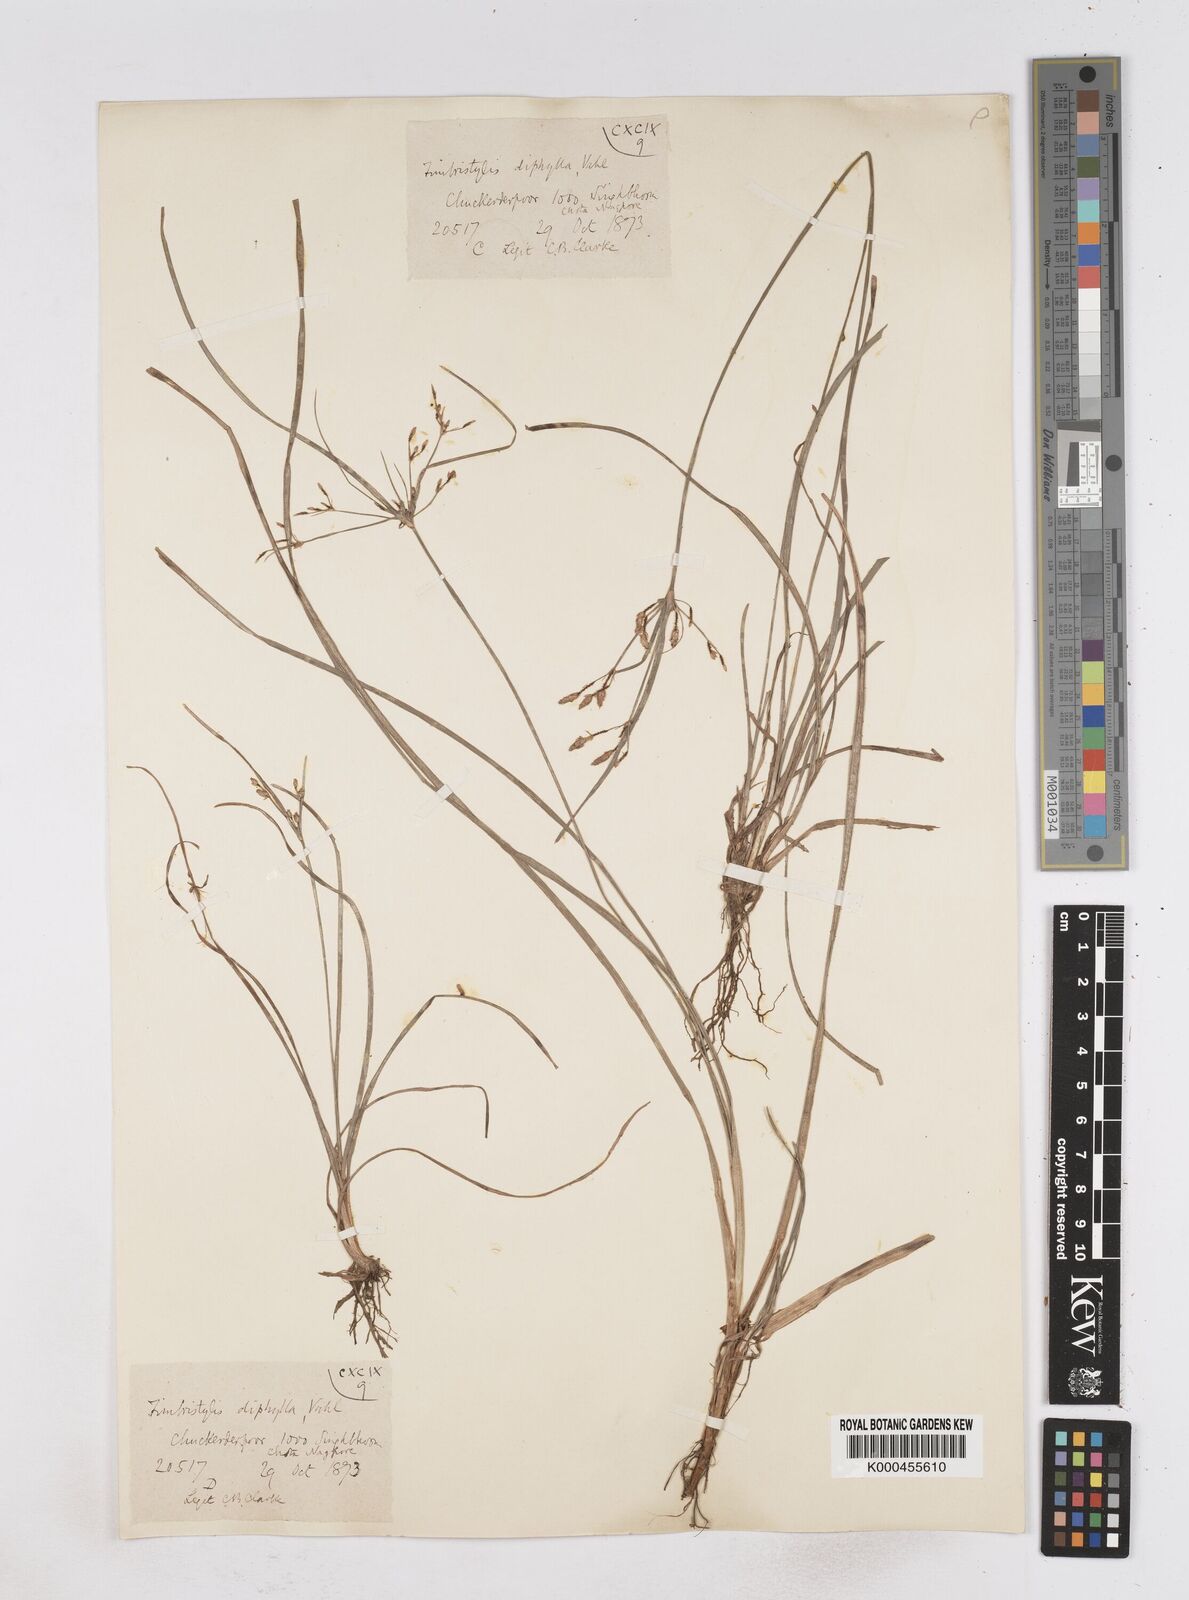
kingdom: Plantae
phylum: Tracheophyta
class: Liliopsida
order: Poales
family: Cyperaceae
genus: Fimbristylis
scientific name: Fimbristylis dichotoma
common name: Forked fimbry
